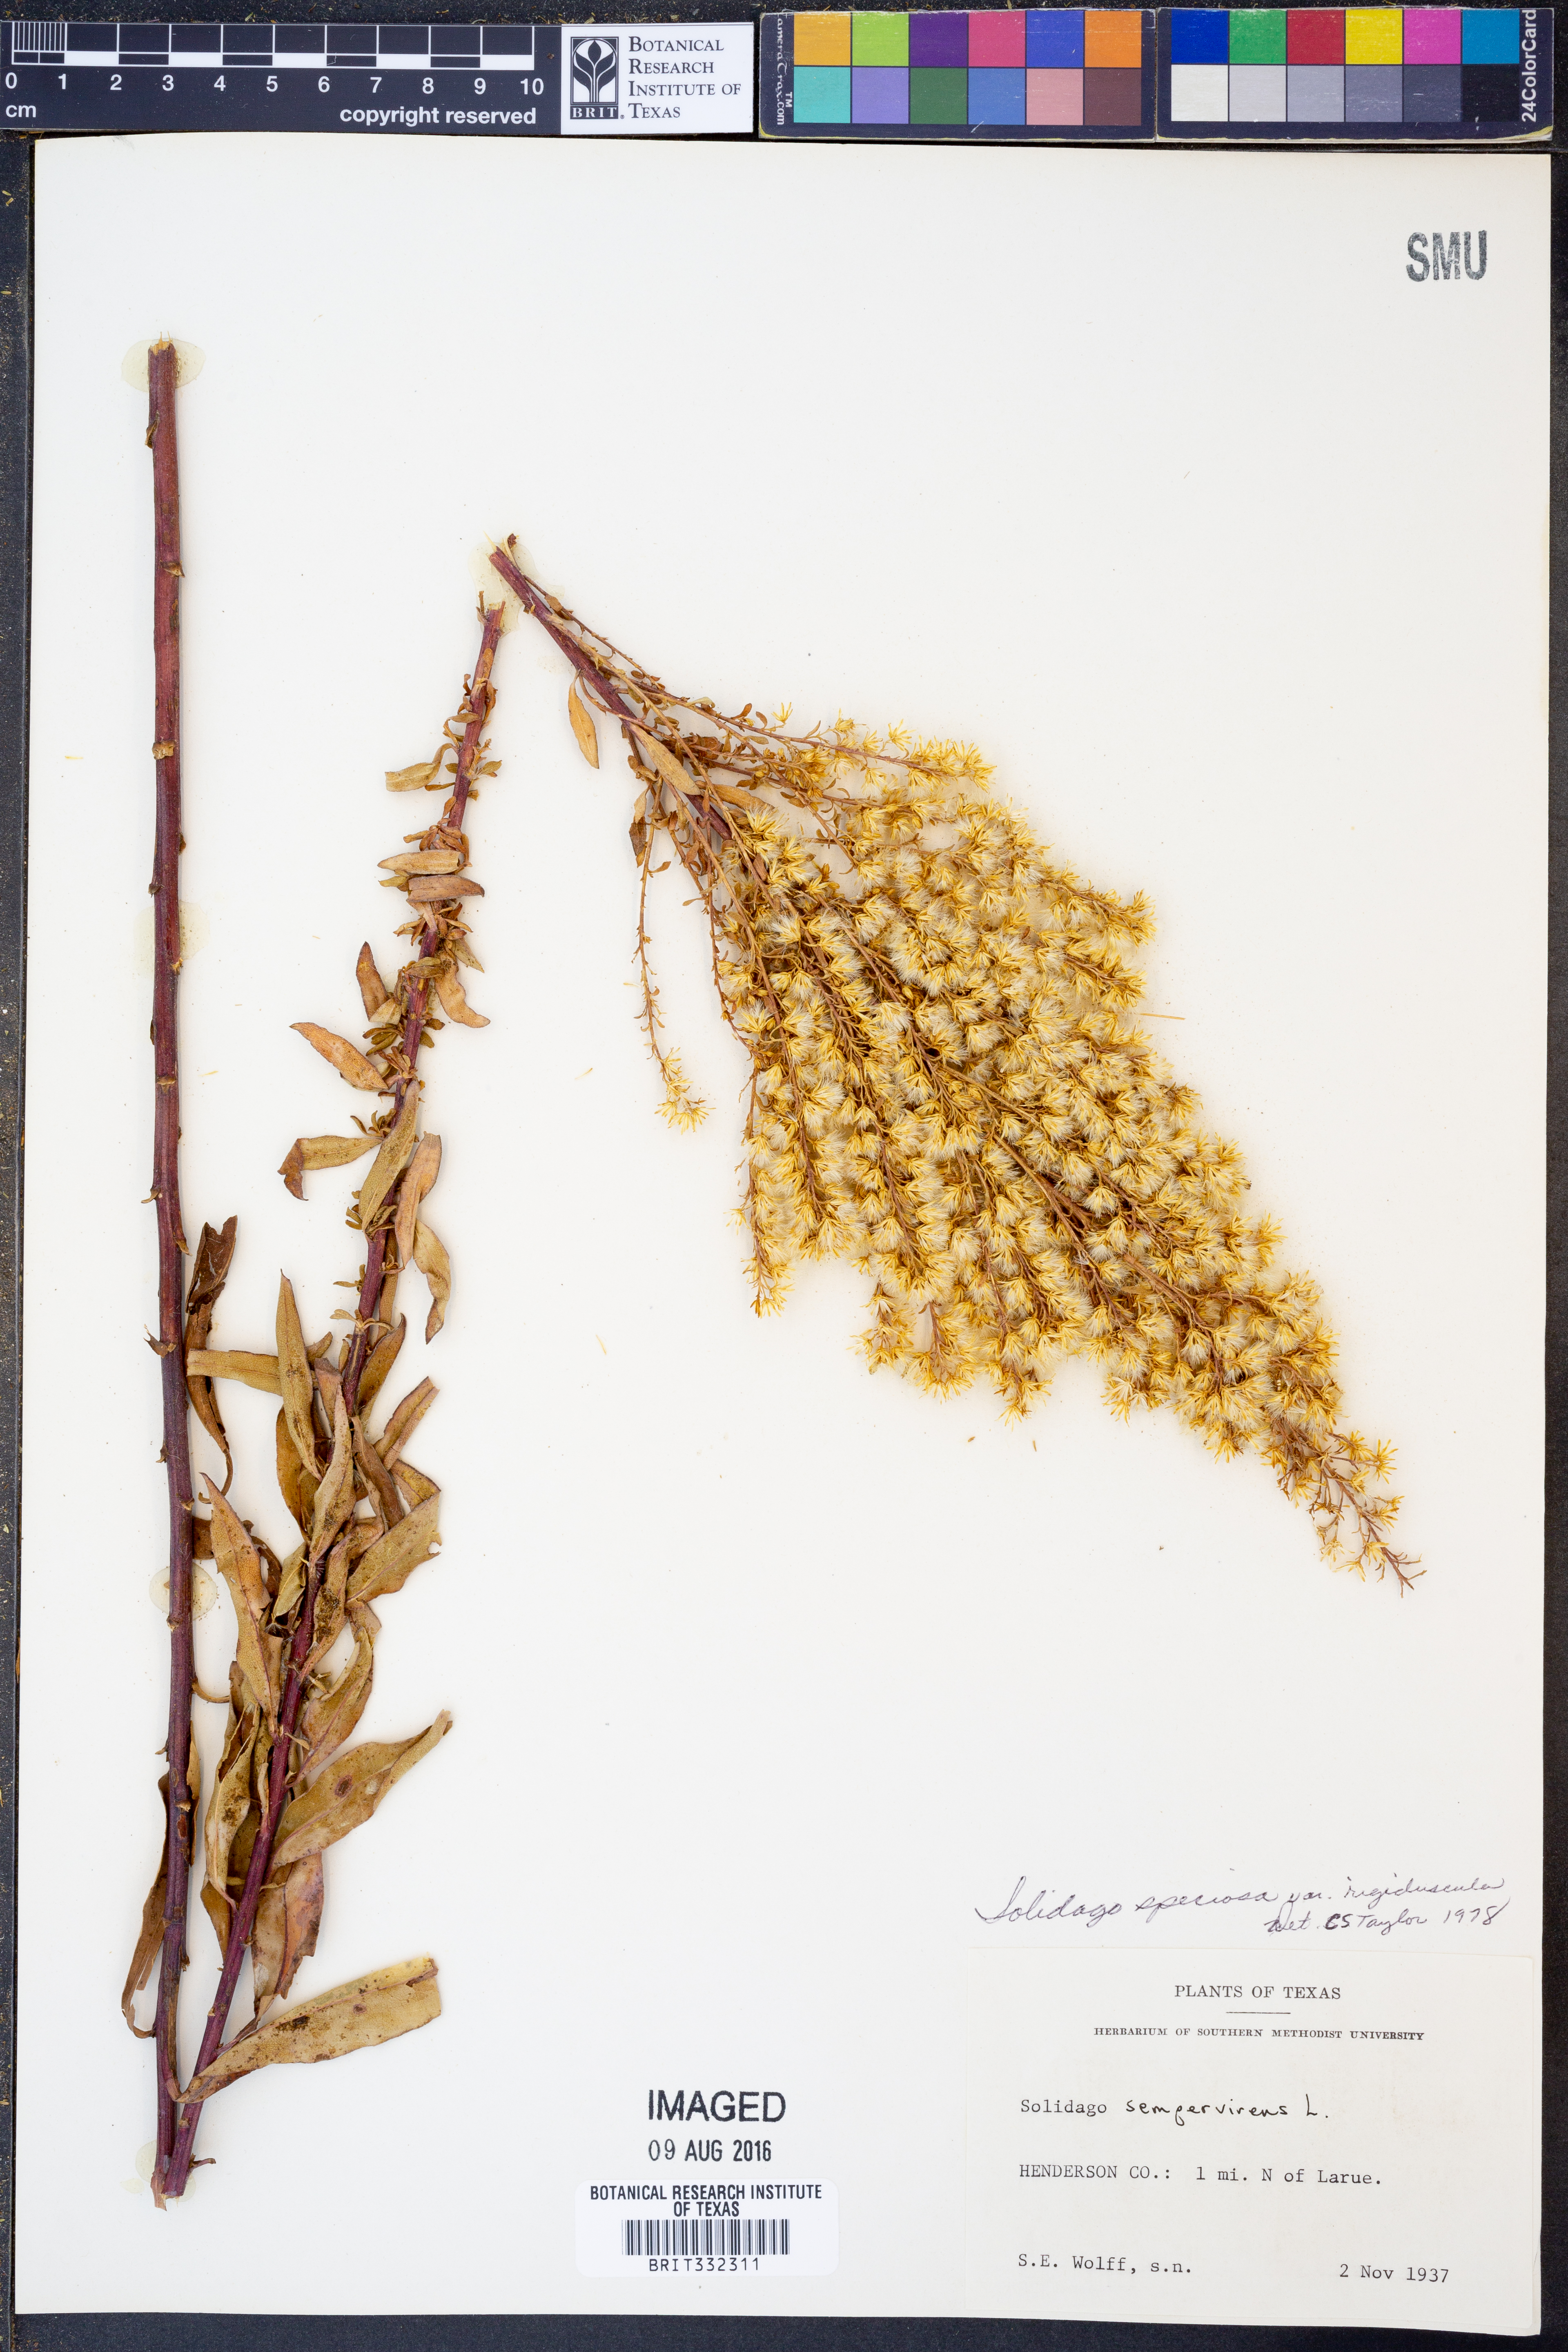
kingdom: Plantae
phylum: Tracheophyta
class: Magnoliopsida
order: Asterales
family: Asteraceae
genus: Solidago
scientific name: Solidago rigidiuscula
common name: Stiff-leaved showy goldenrod
